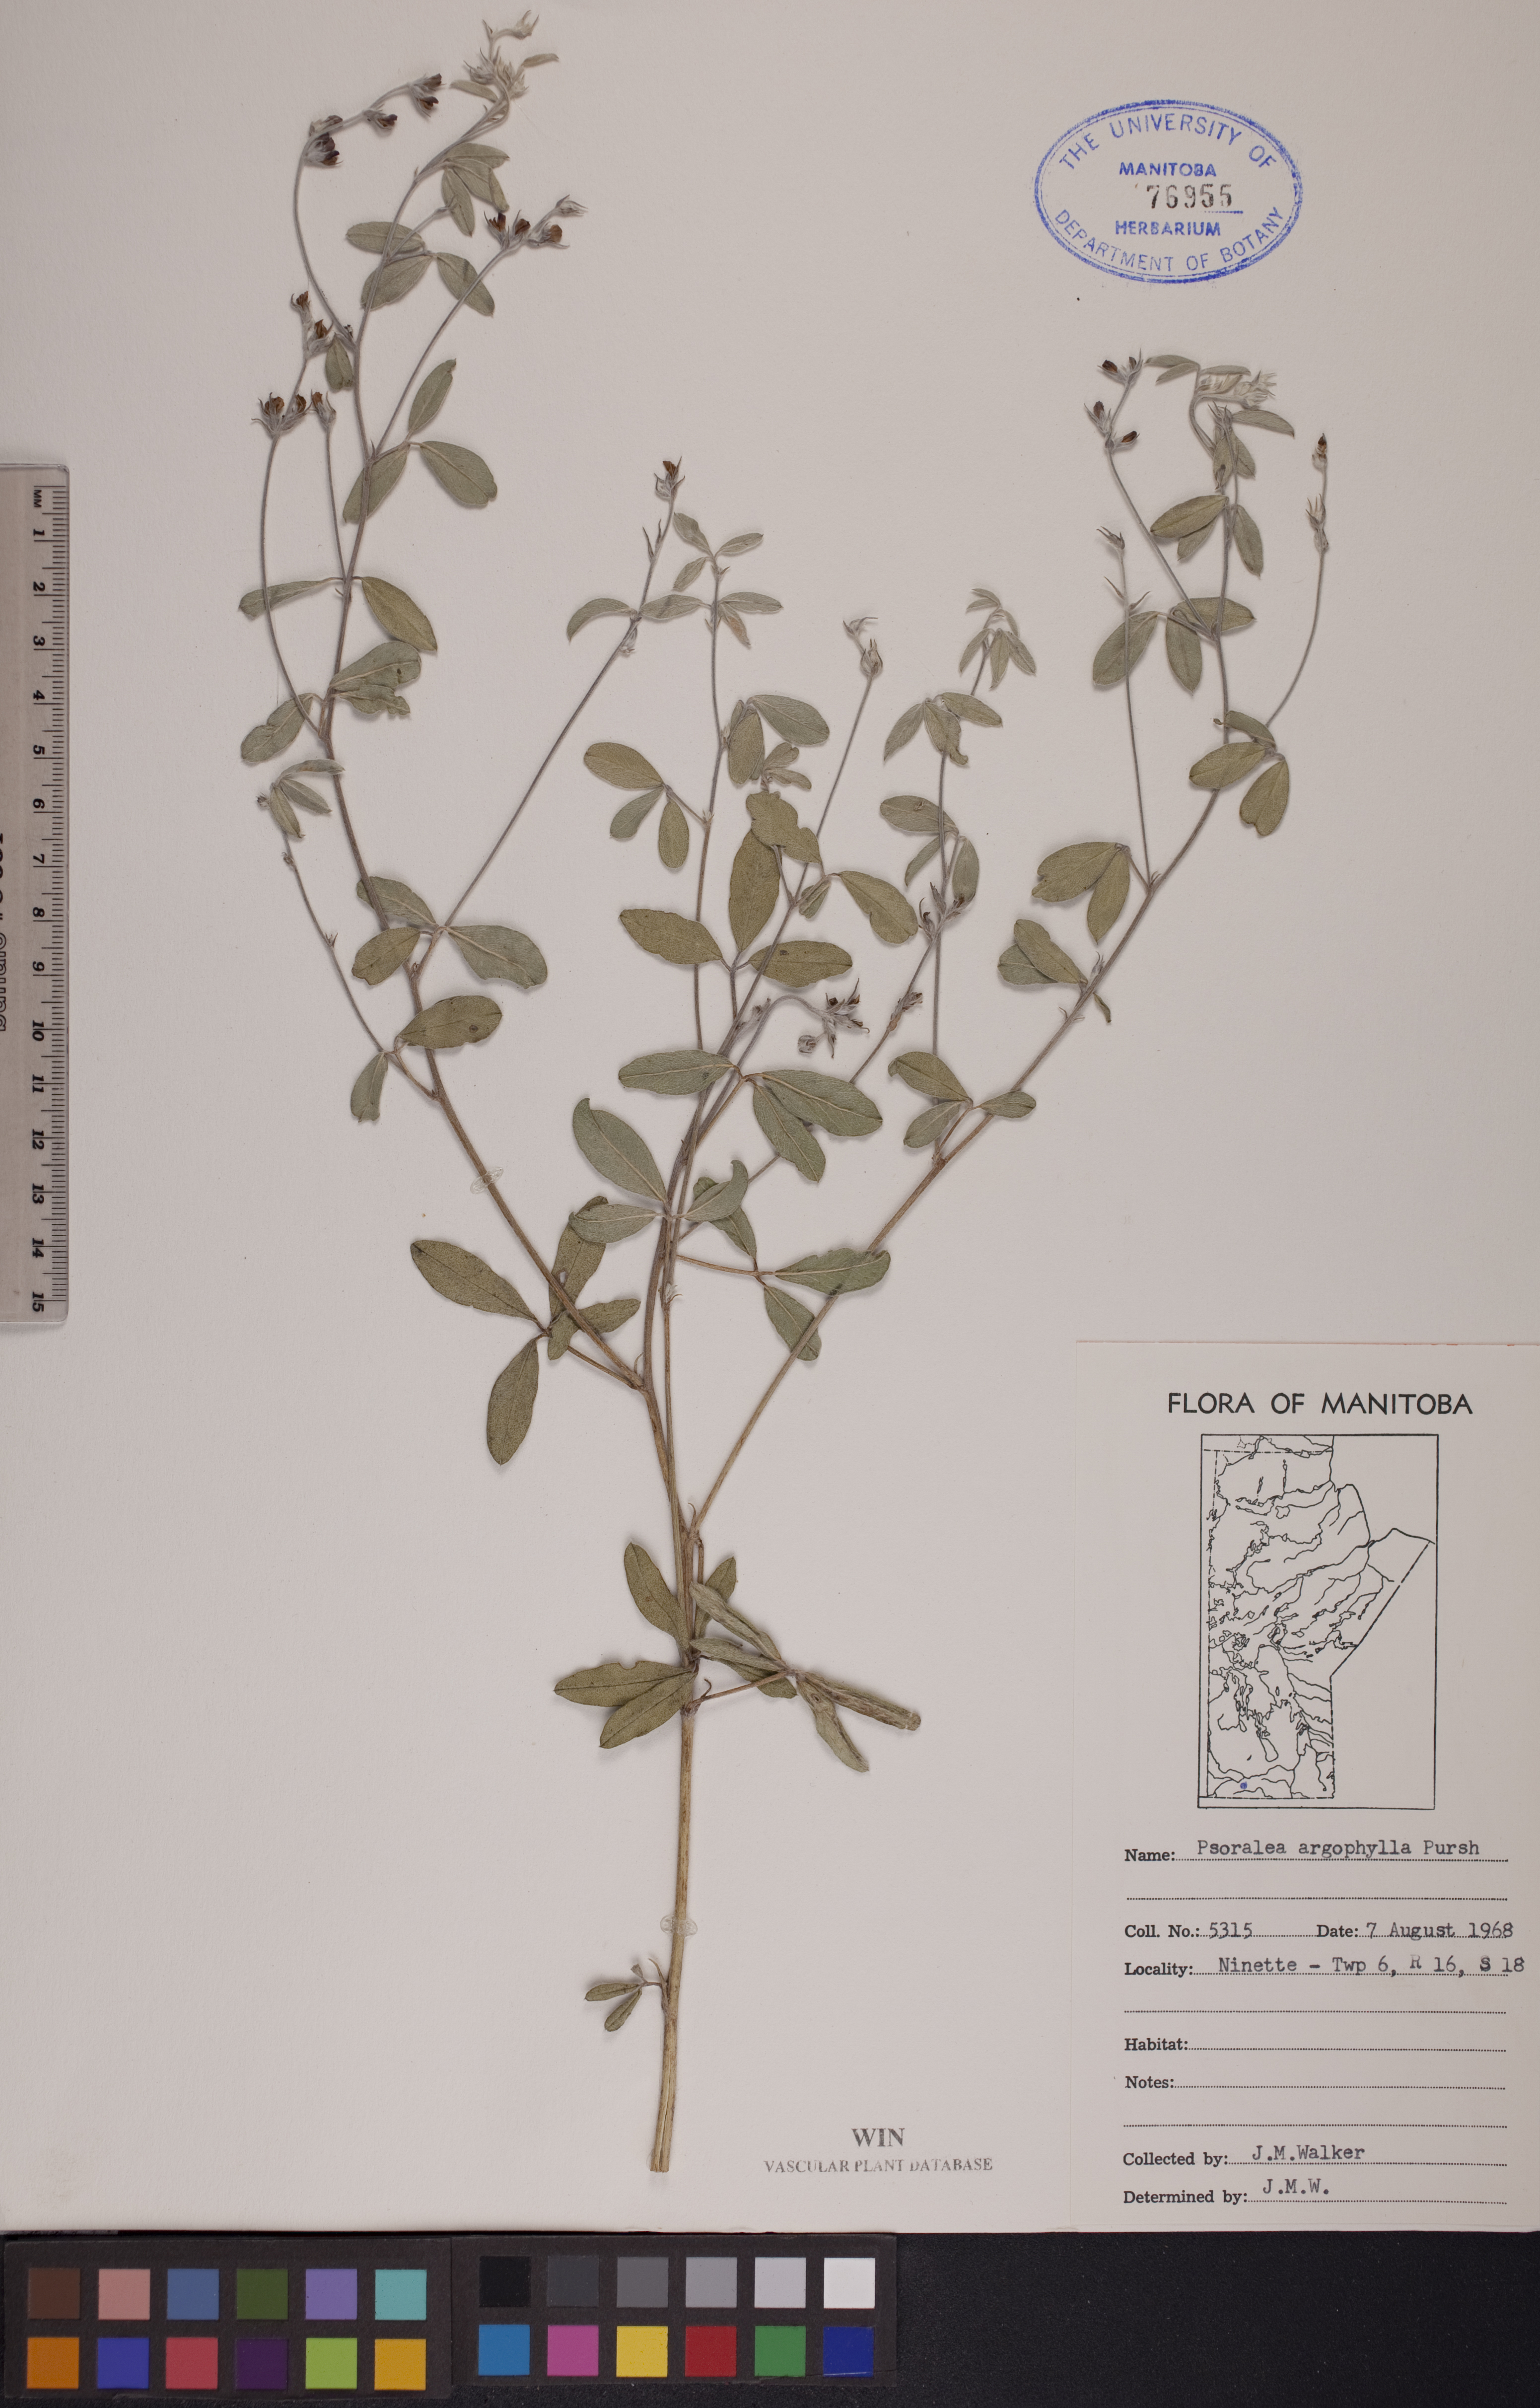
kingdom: Plantae
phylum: Tracheophyta
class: Magnoliopsida
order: Fabales
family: Fabaceae
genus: Pediomelum
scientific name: Pediomelum argophyllum
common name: Silver-leaved indian breadroot
